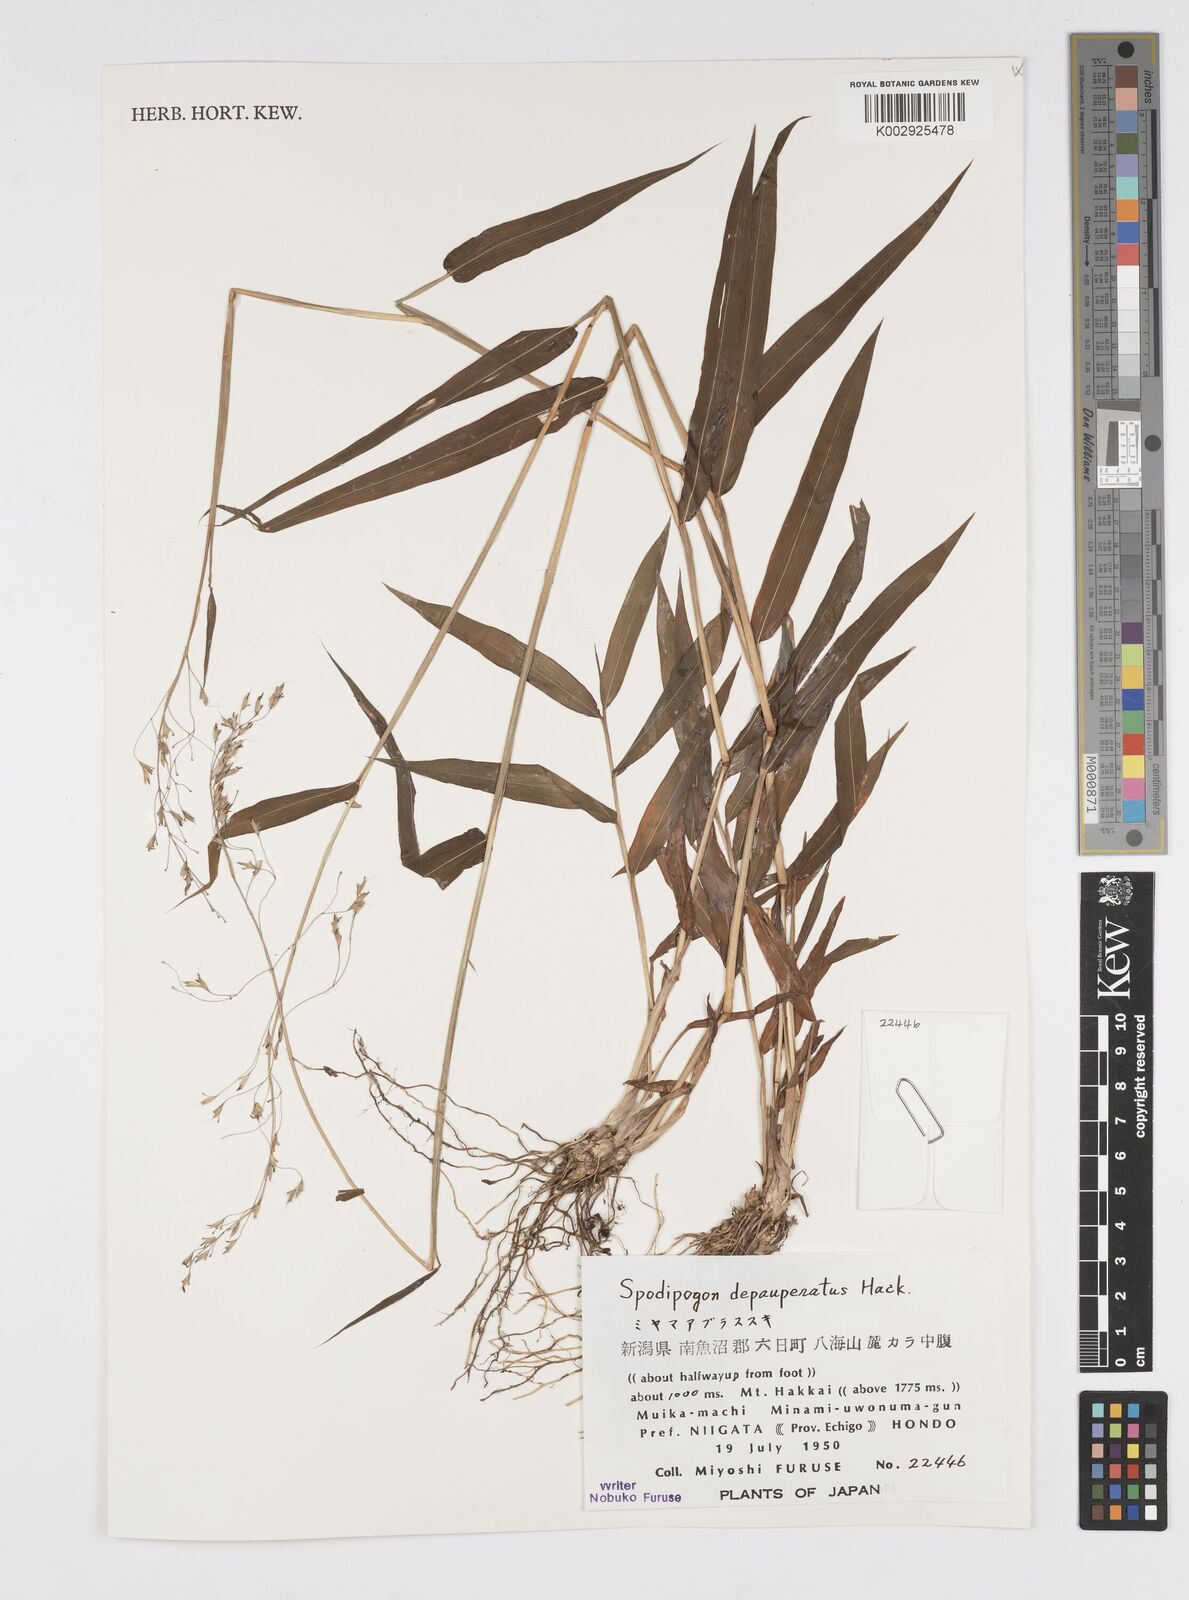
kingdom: Plantae
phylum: Tracheophyta
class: Liliopsida
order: Poales
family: Poaceae
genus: Spodiopogon
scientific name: Spodiopogon depauperatus
